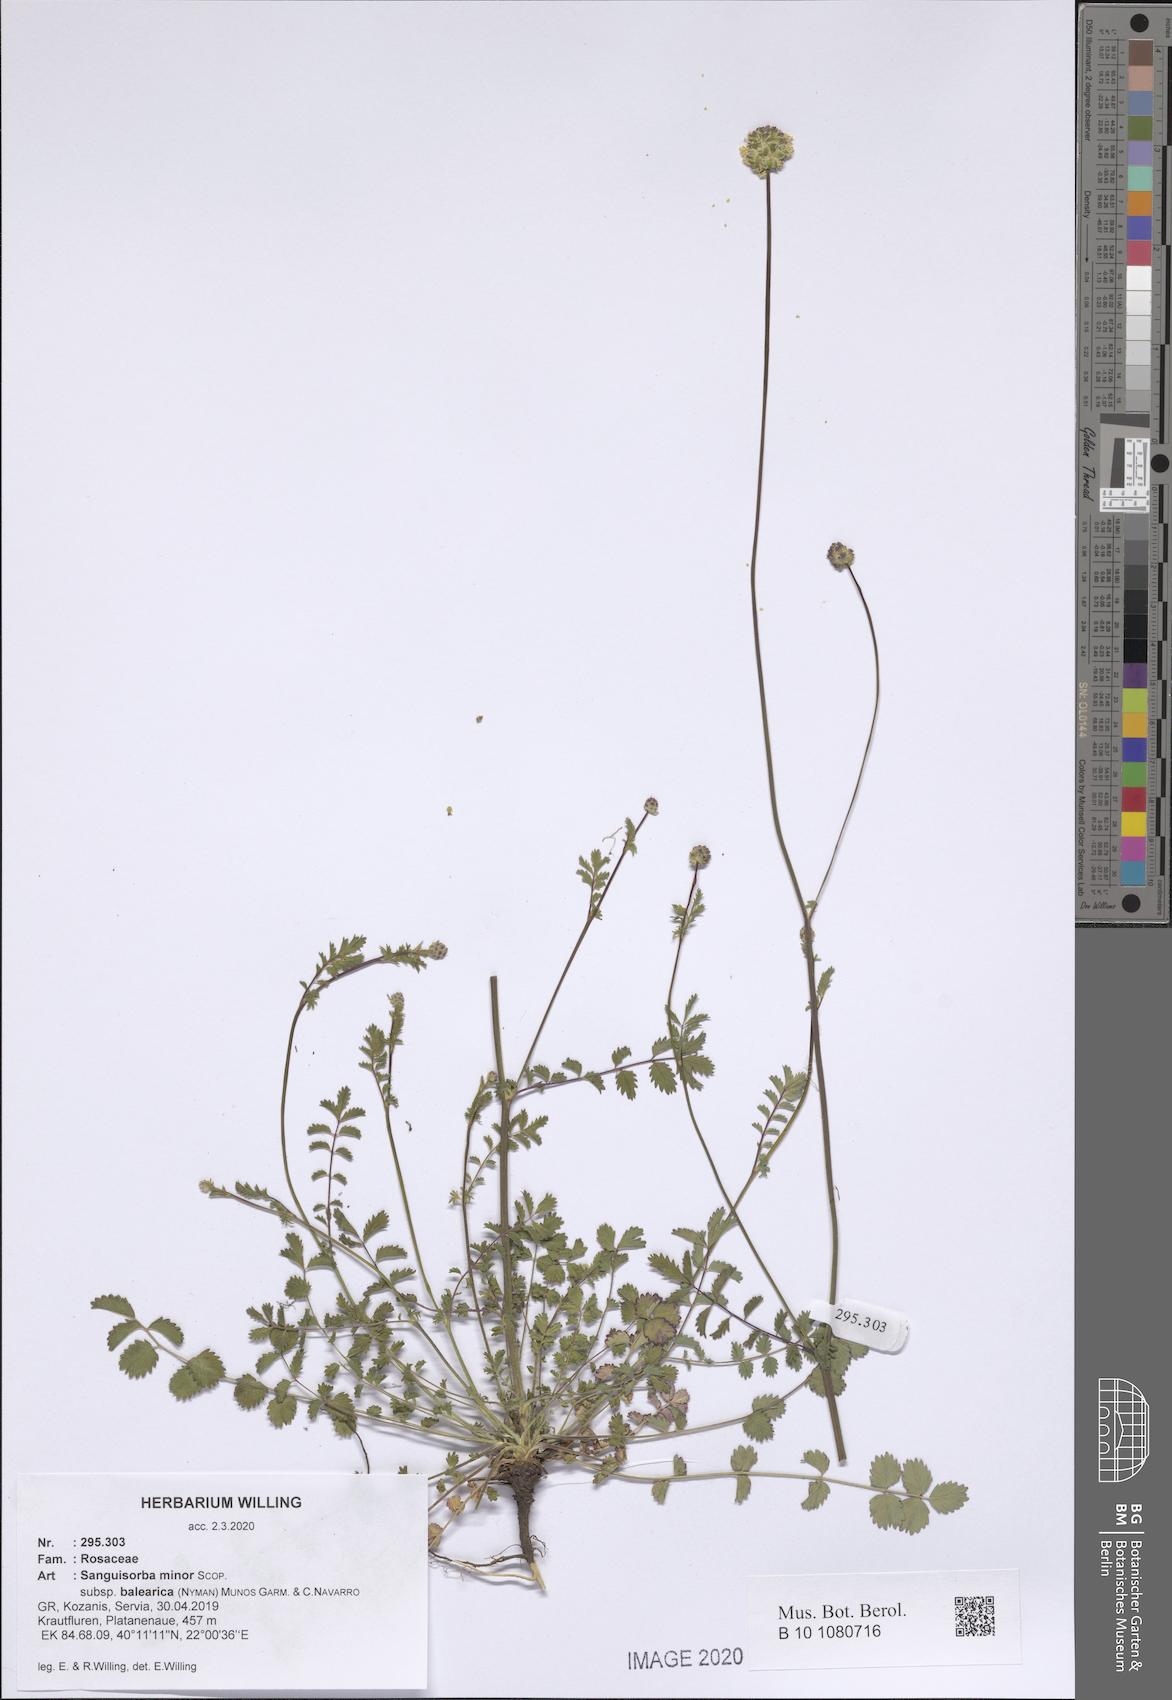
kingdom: Plantae
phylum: Tracheophyta
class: Magnoliopsida
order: Rosales
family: Rosaceae
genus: Poterium
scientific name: Poterium sanguisorba
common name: Salad burnet
